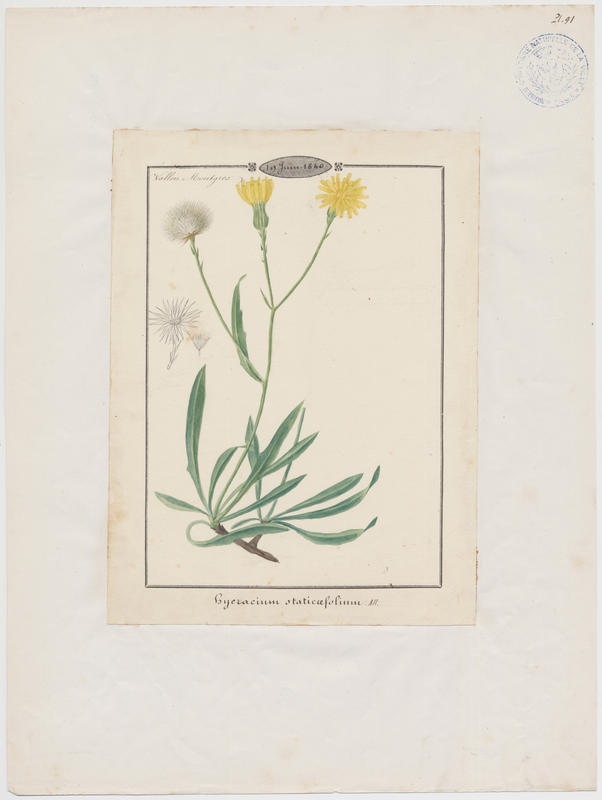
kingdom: Plantae
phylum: Tracheophyta
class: Magnoliopsida
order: Asterales
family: Asteraceae
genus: Tolpis
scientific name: Tolpis staticifolia
